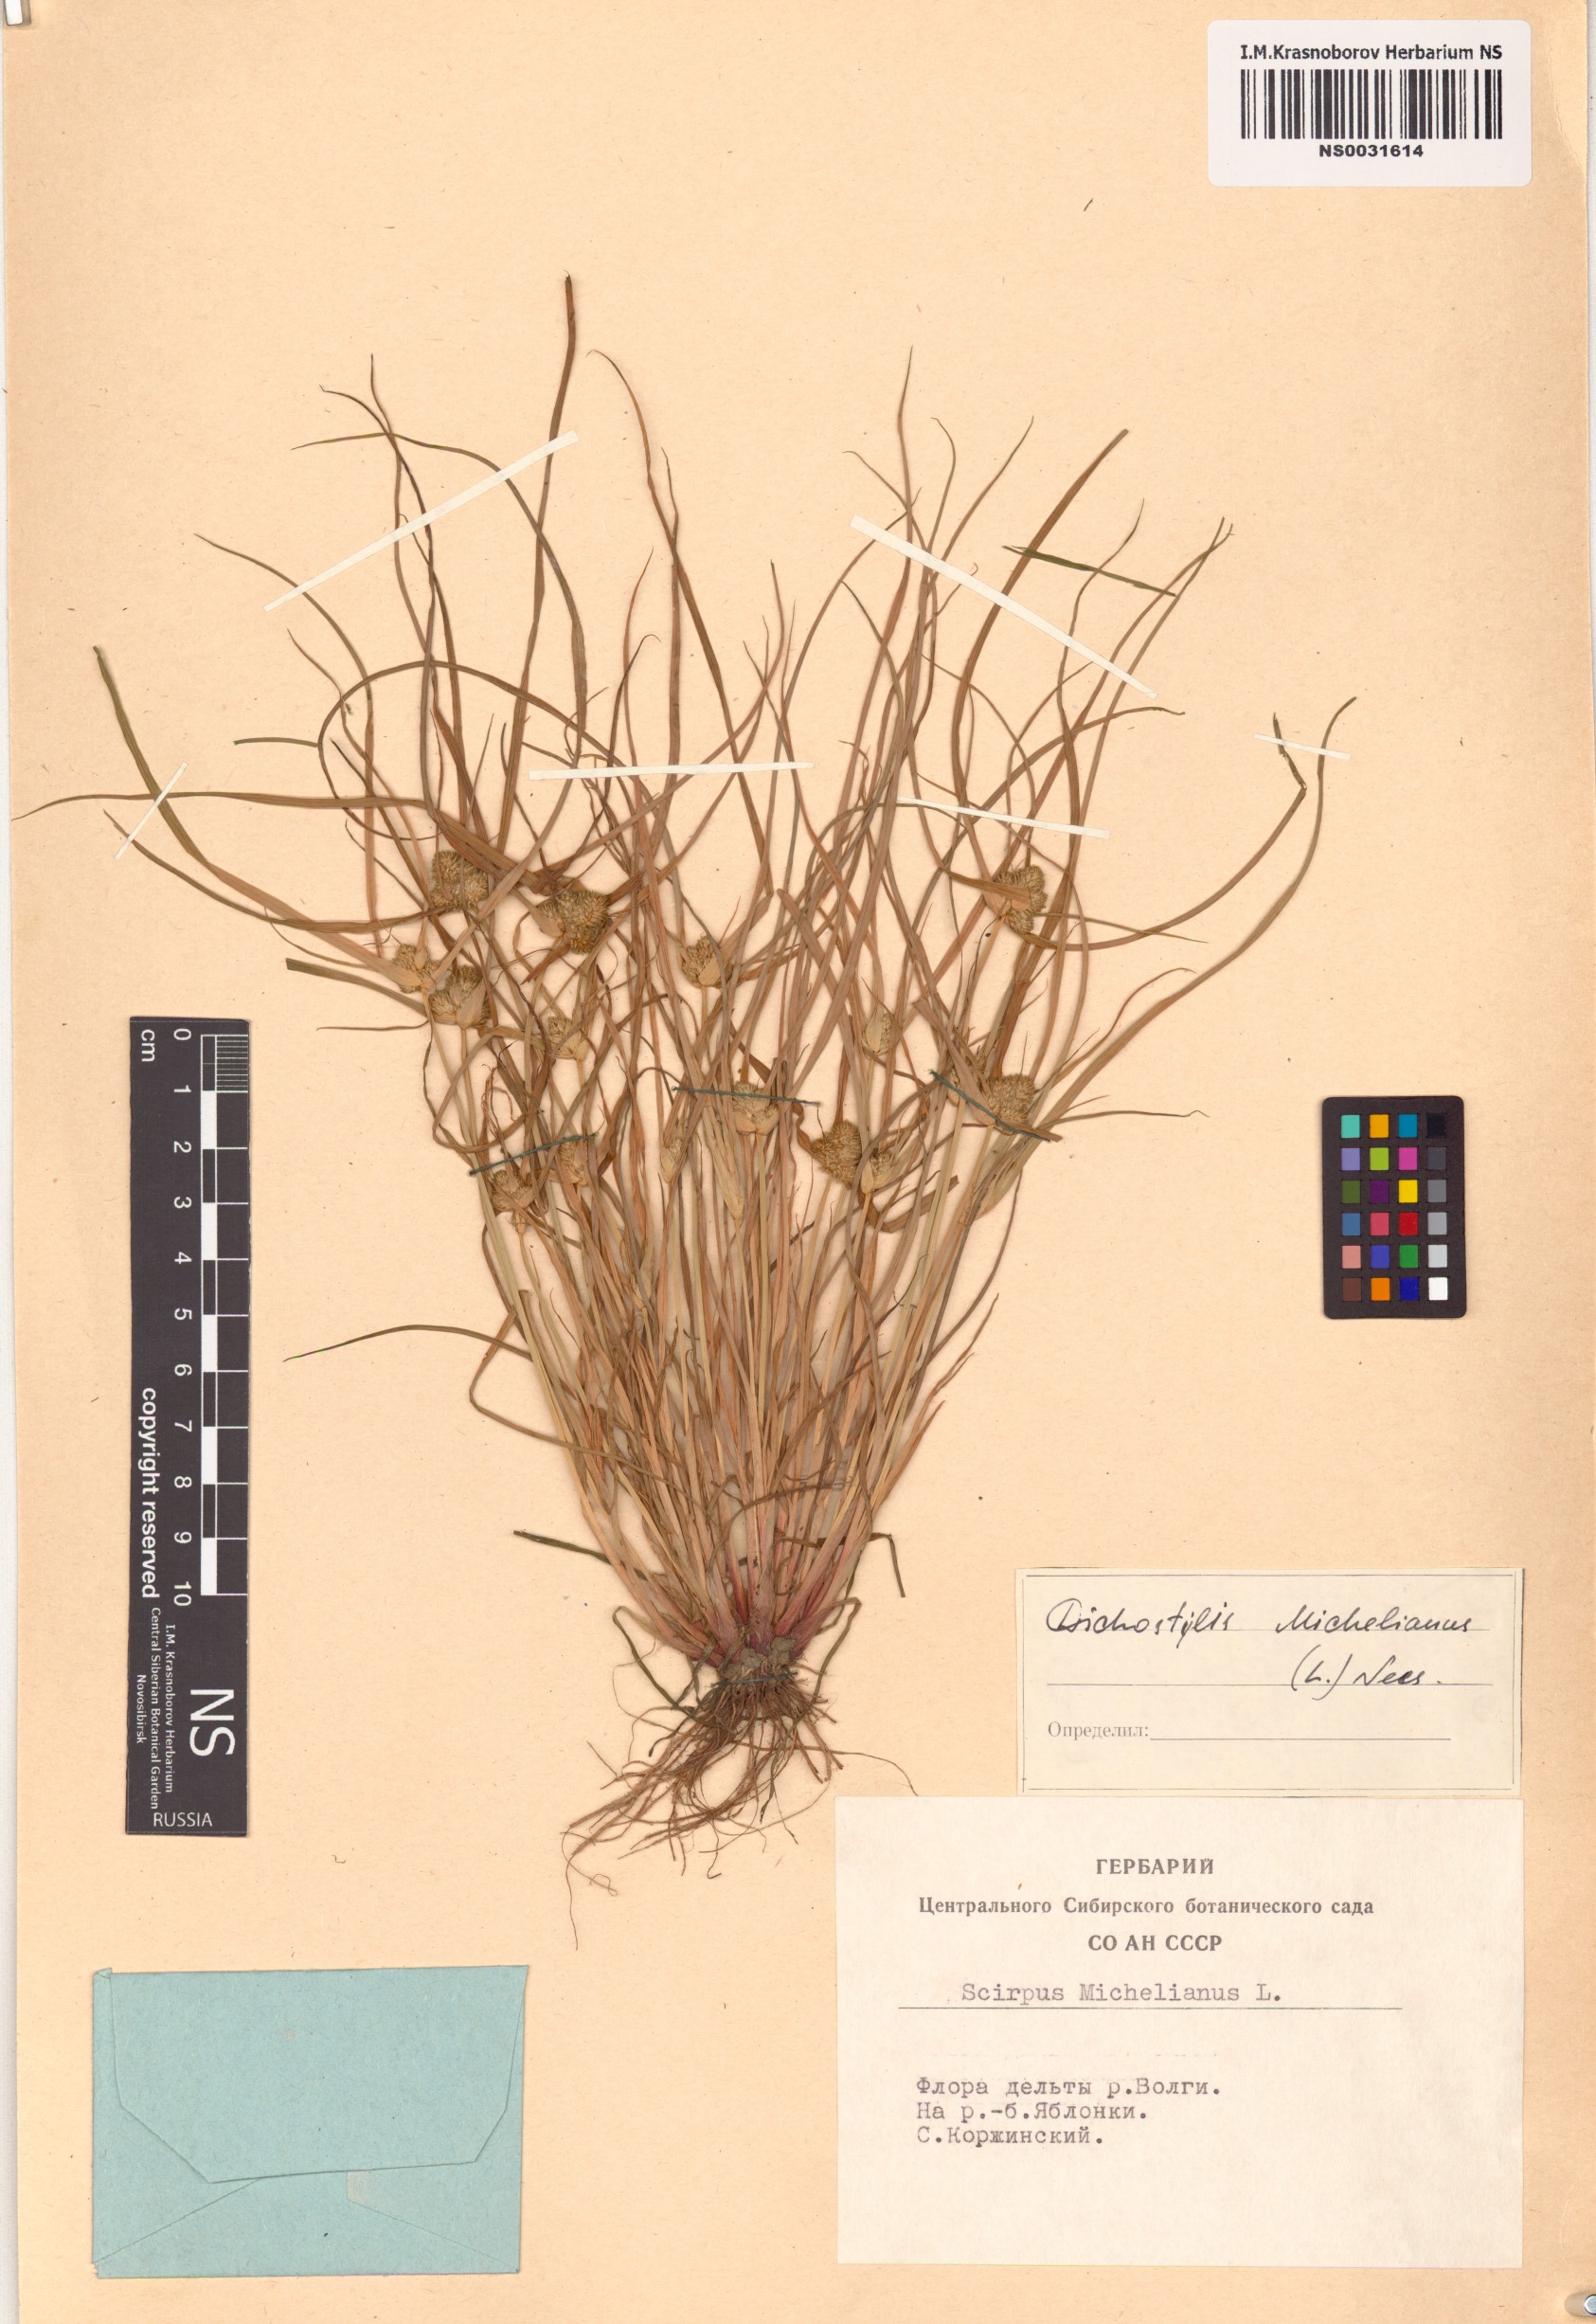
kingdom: Plantae
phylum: Tracheophyta
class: Liliopsida
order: Poales
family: Cyperaceae
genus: Cyperus
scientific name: Cyperus michelianus
